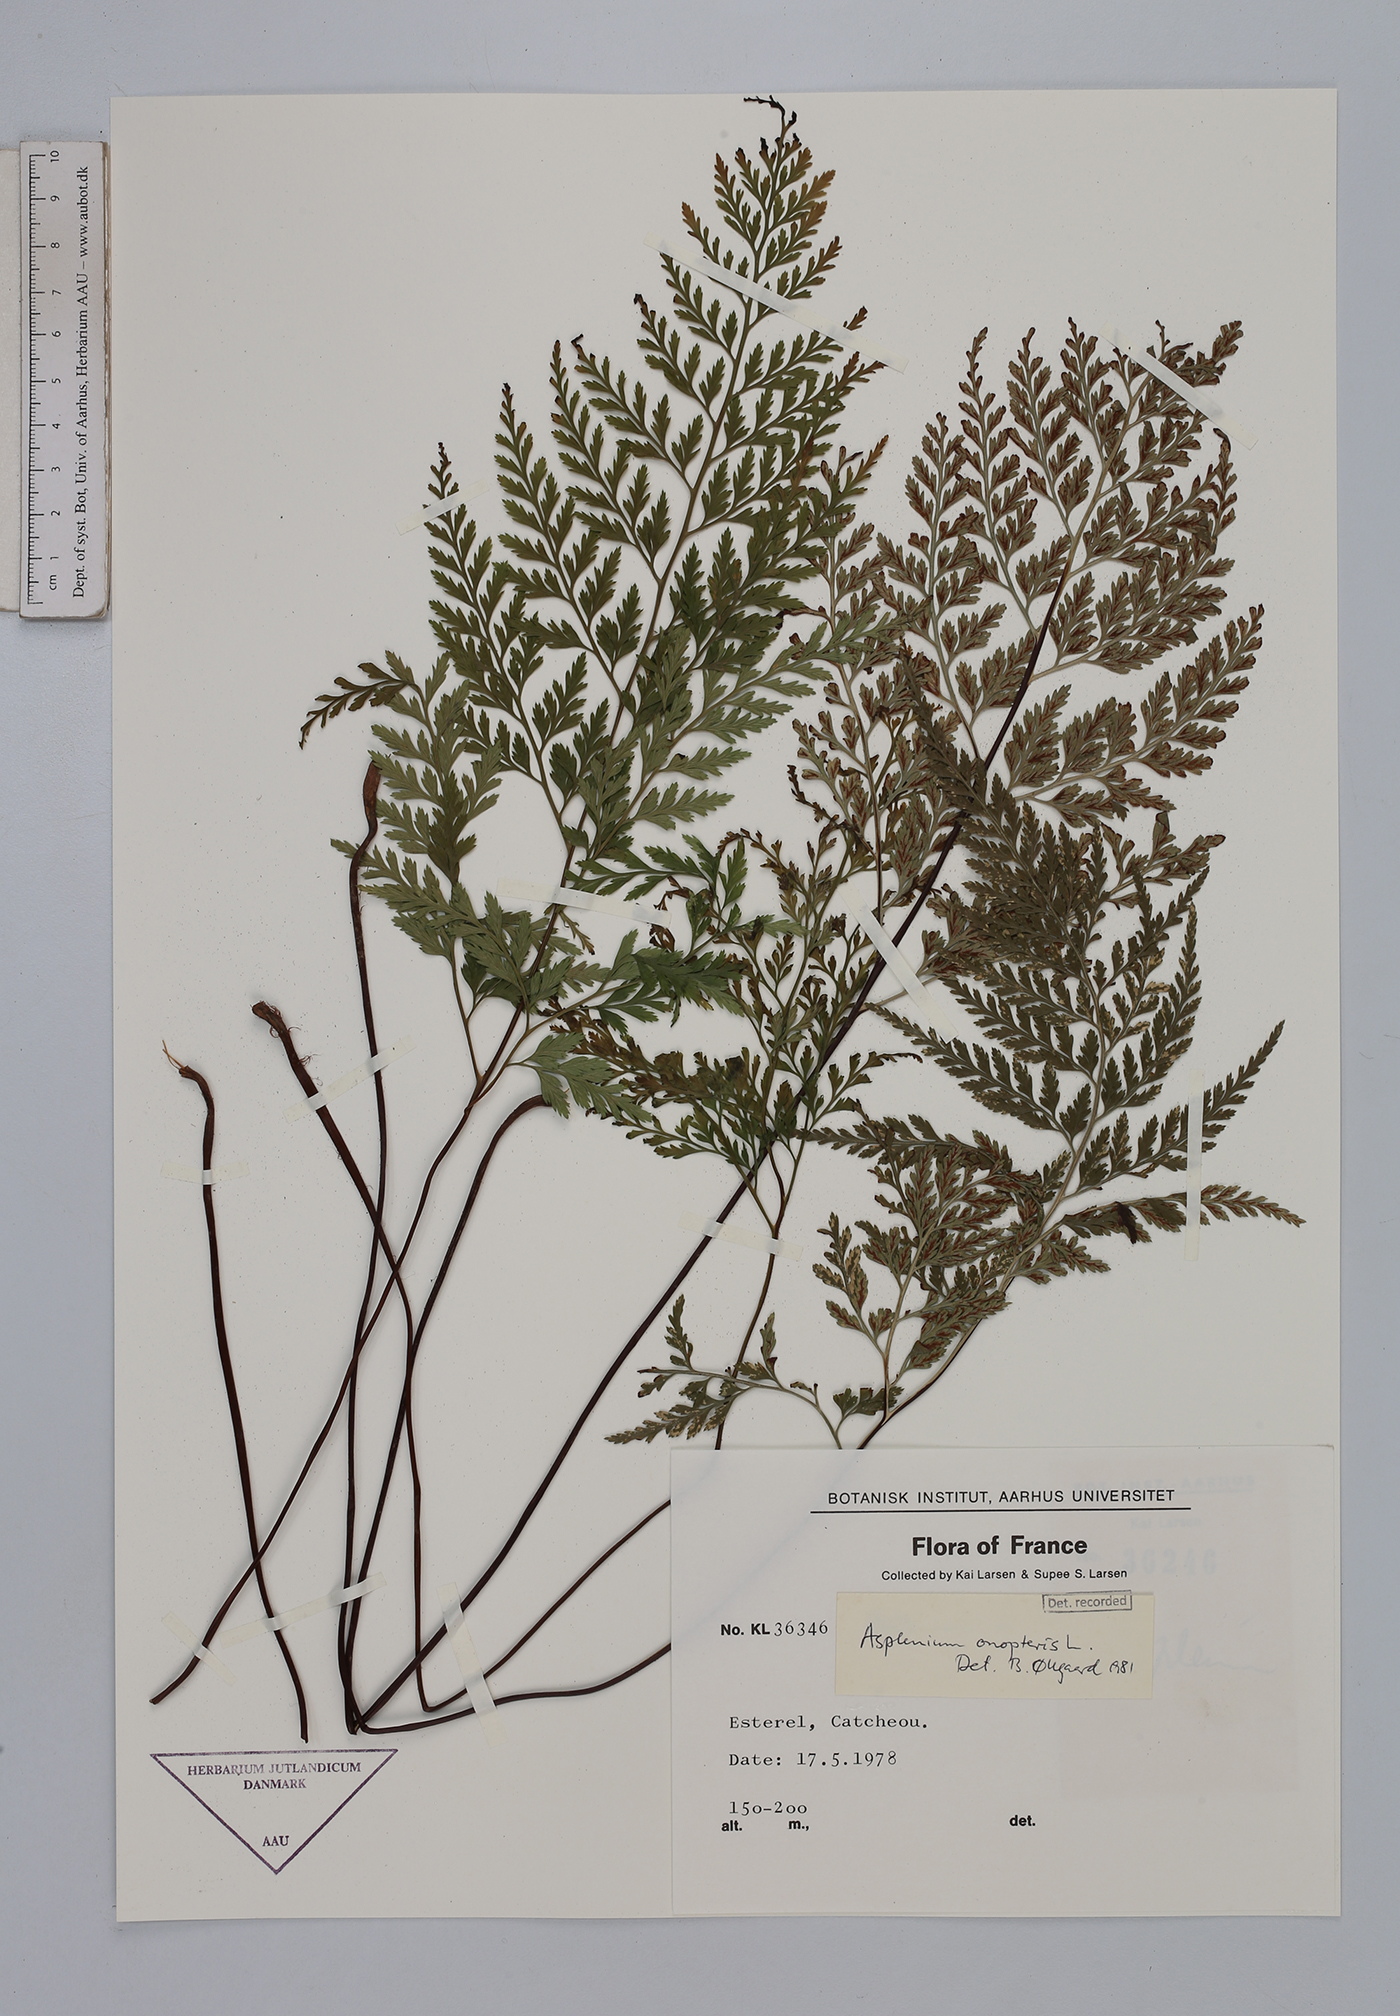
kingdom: Plantae
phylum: Tracheophyta
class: Polypodiopsida
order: Polypodiales
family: Aspleniaceae
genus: Asplenium
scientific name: Asplenium onopteris
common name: Irish spleenwort
